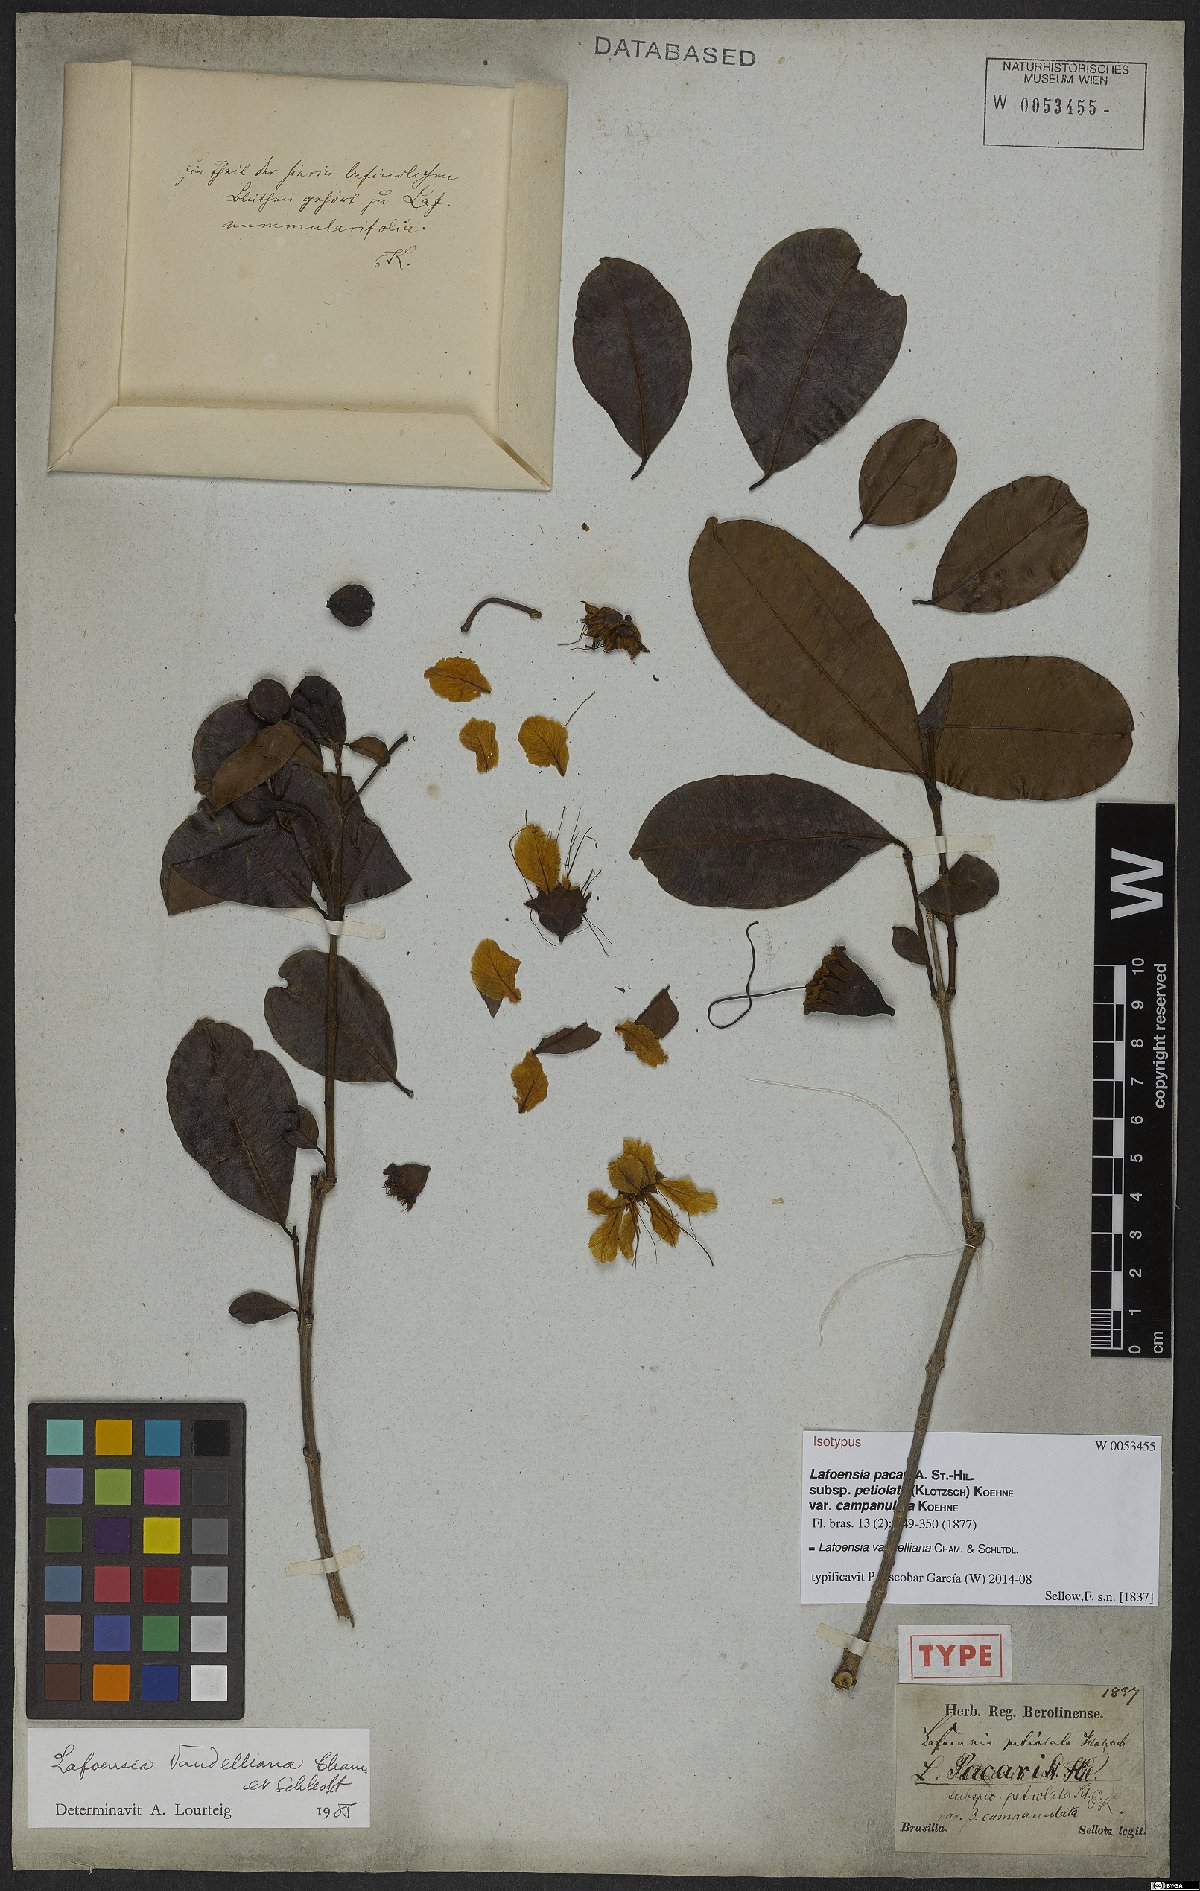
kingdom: Plantae
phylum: Tracheophyta
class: Magnoliopsida
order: Myrtales
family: Lythraceae
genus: Lafoensia
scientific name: Lafoensia vandelliana
